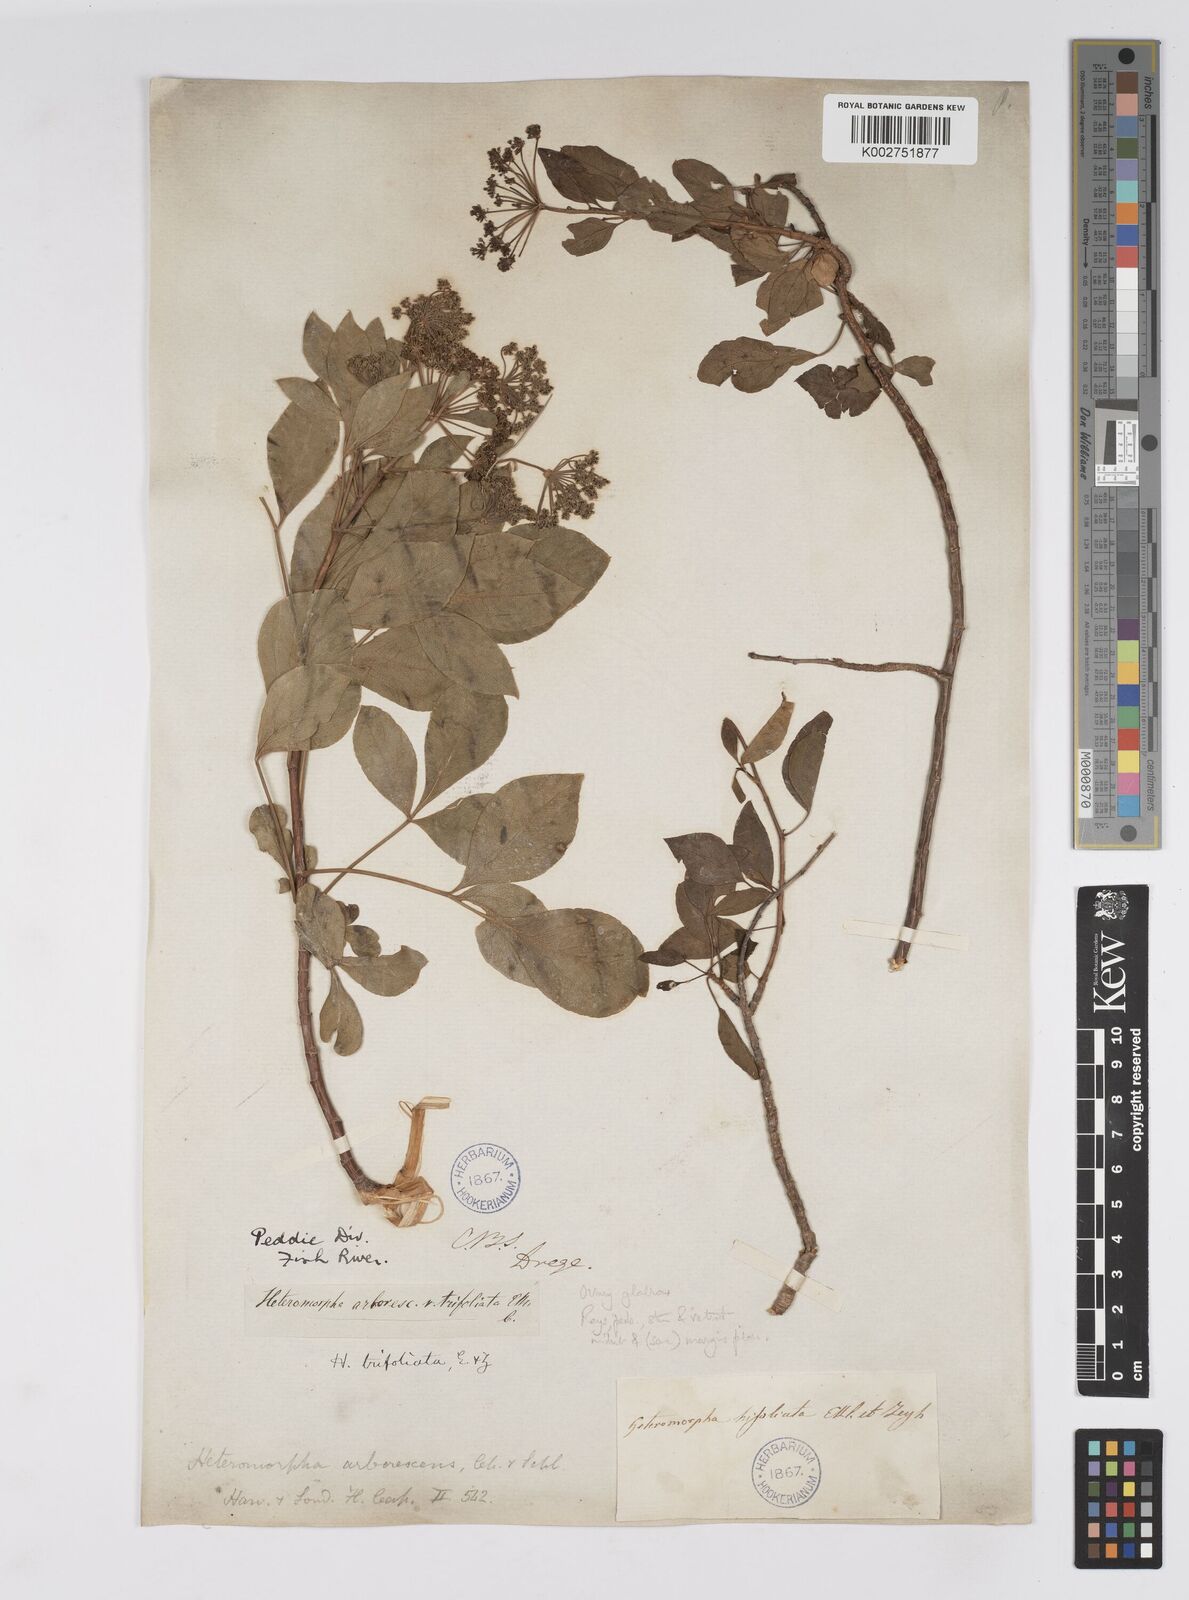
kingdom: Plantae
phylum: Tracheophyta
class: Magnoliopsida
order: Apiales
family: Apiaceae
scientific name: Apiaceae
